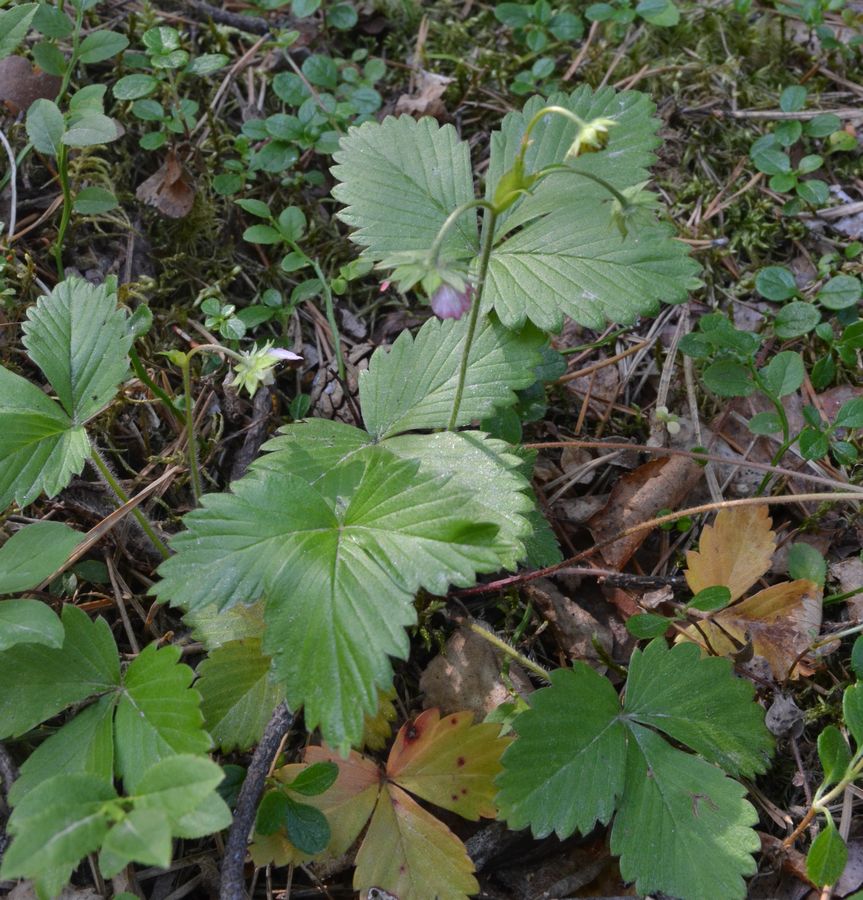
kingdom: Plantae
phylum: Tracheophyta
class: Magnoliopsida
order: Rosales
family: Rosaceae
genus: Fragaria
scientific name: Fragaria vesca
